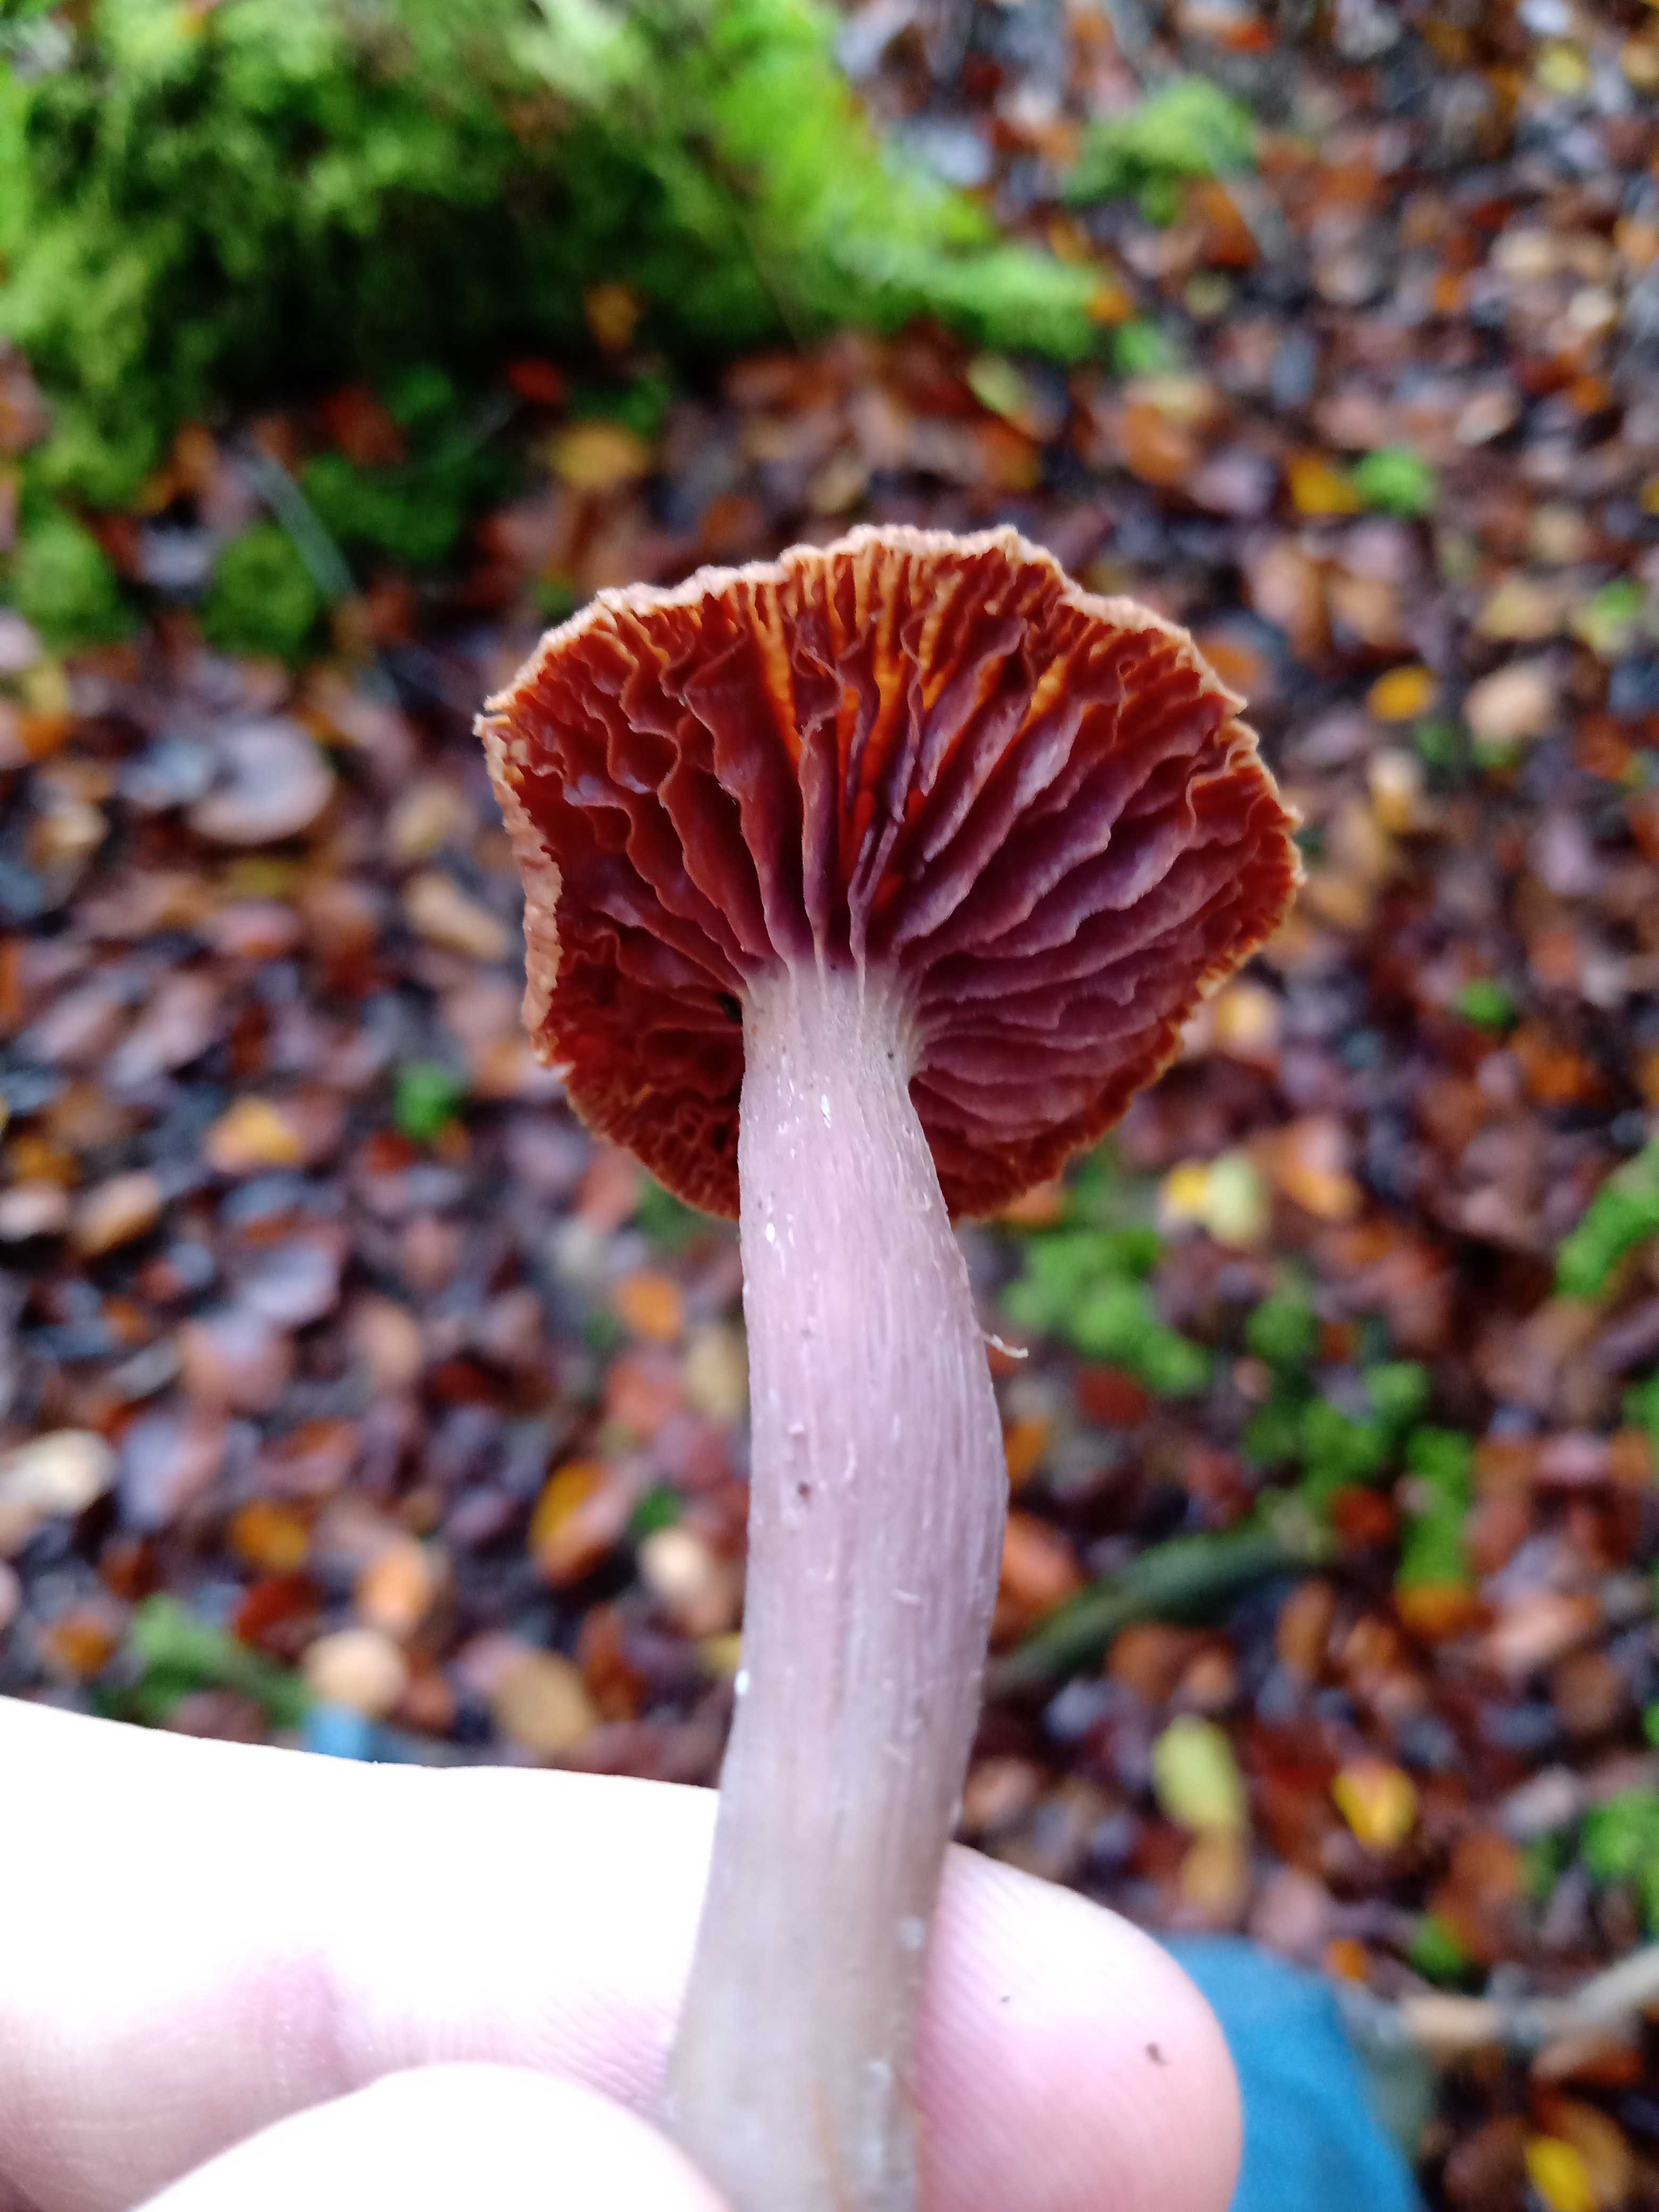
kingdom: Fungi
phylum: Basidiomycota
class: Agaricomycetes
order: Agaricales
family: Cortinariaceae
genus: Cortinarius
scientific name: Cortinarius
